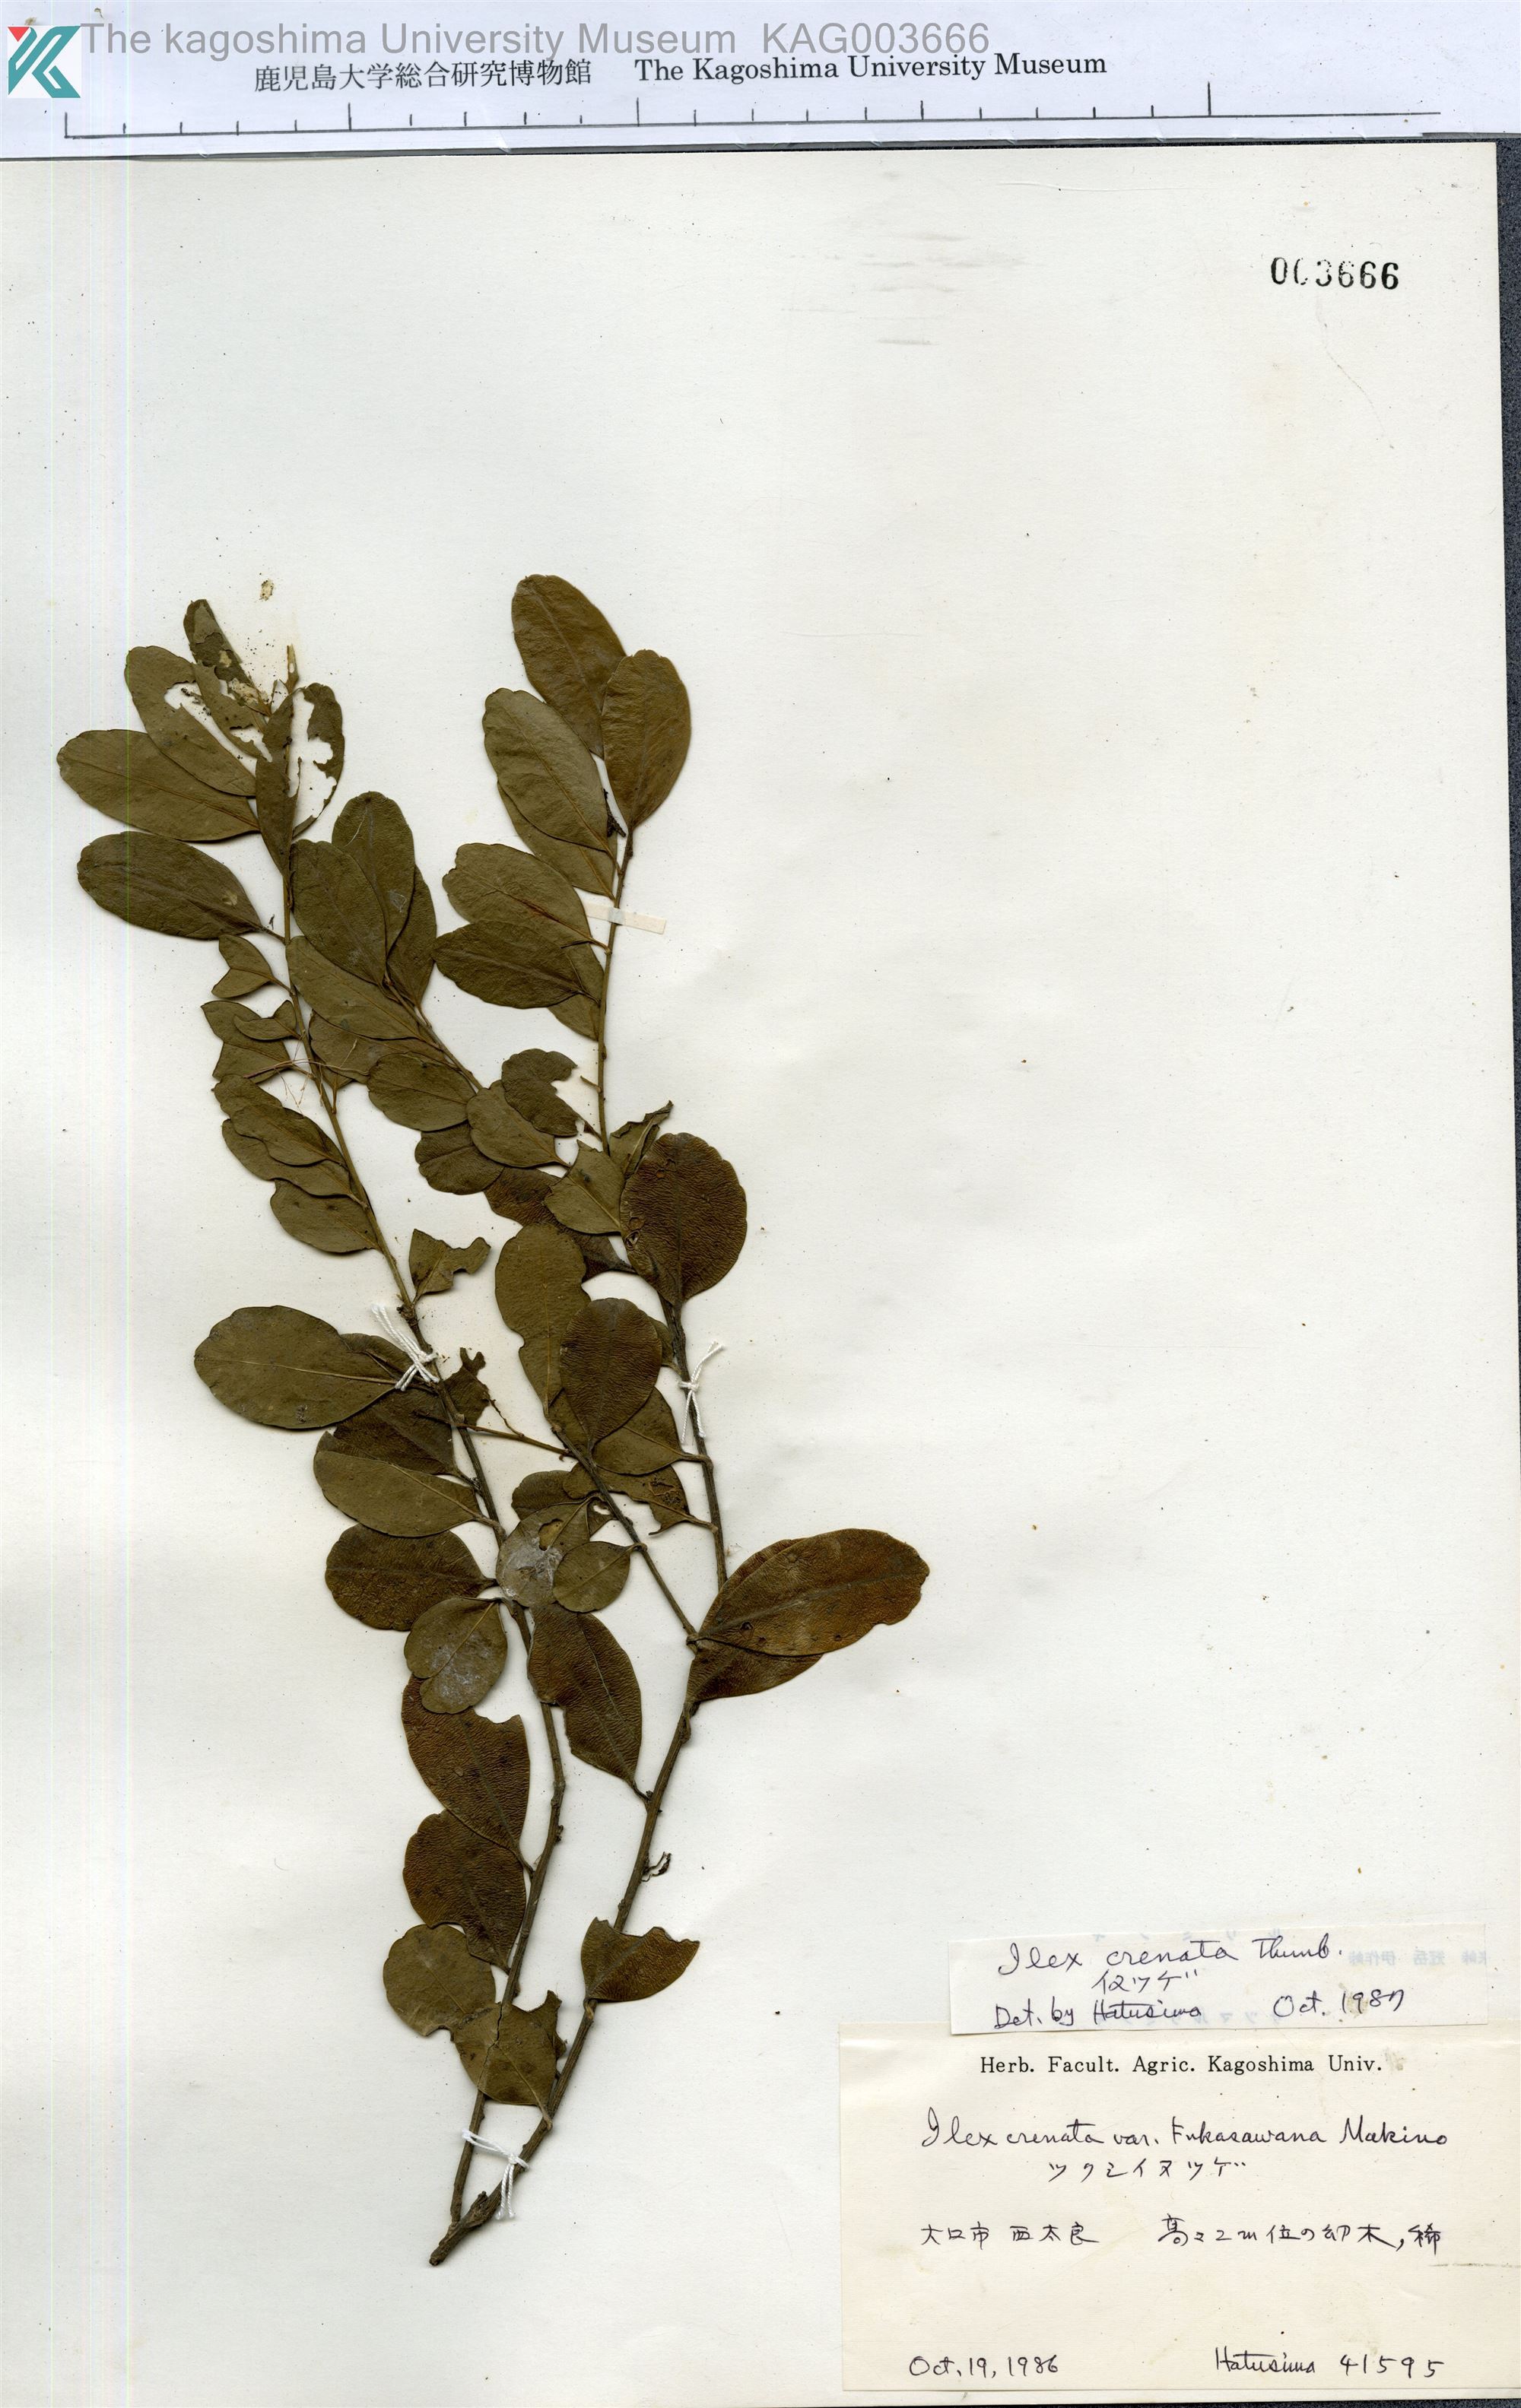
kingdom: Plantae
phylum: Tracheophyta
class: Magnoliopsida
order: Aquifoliales
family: Aquifoliaceae
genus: Ilex
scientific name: Ilex crenata
